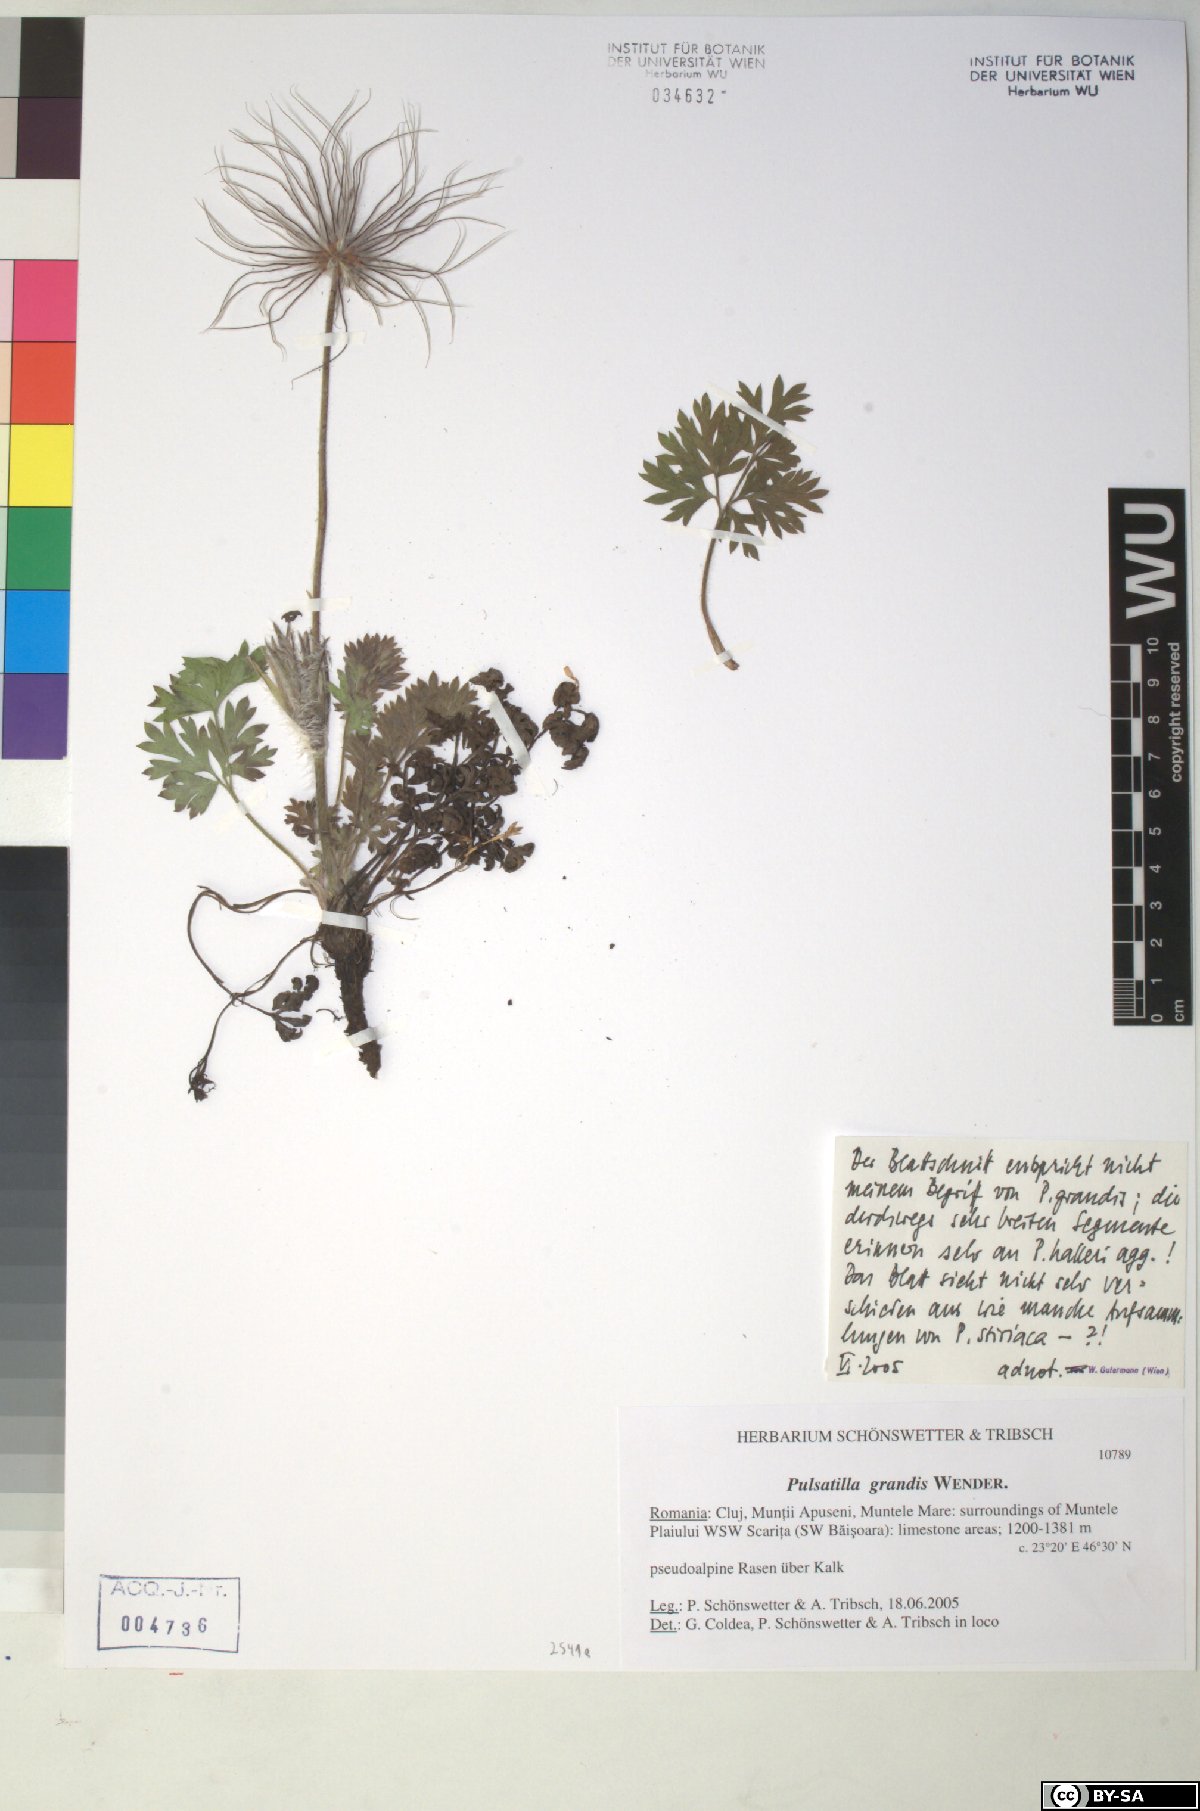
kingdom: Plantae
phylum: Tracheophyta
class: Magnoliopsida
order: Ranunculales
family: Ranunculaceae
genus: Pulsatilla
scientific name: Pulsatilla grandis
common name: Greater pasque flower
